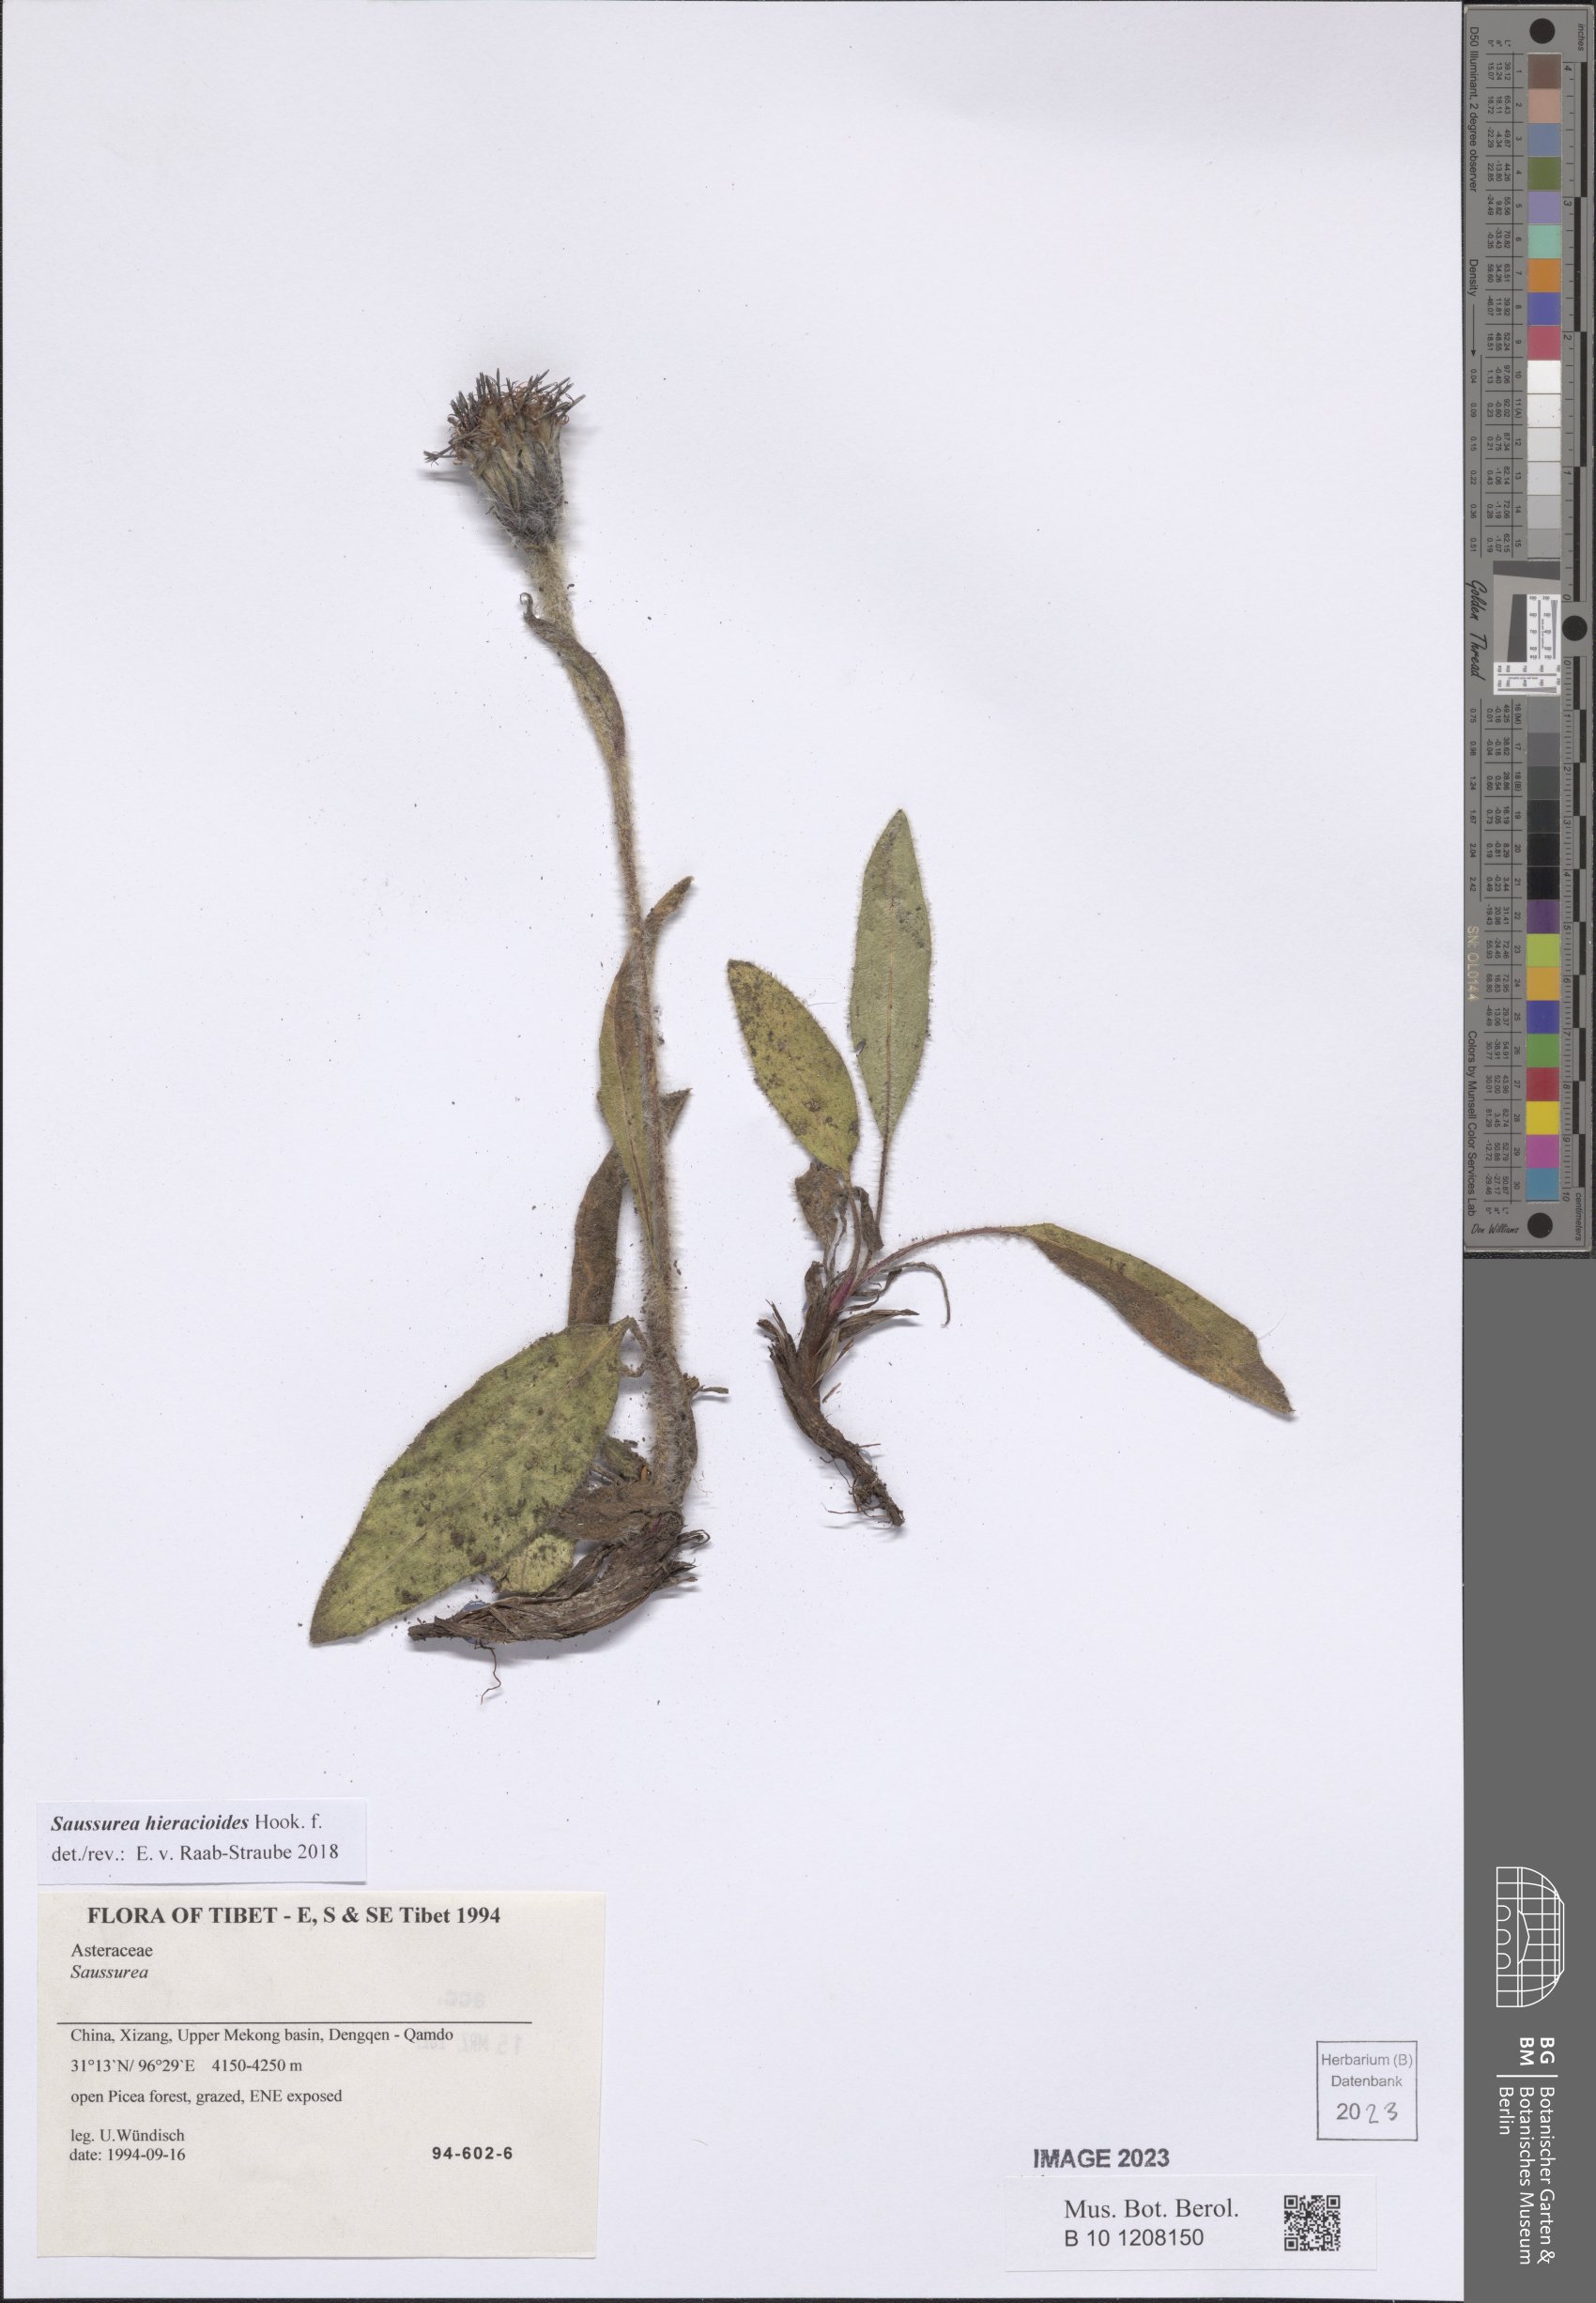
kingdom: Plantae
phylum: Tracheophyta
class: Magnoliopsida
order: Asterales
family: Asteraceae
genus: Saussurea
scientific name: Saussurea hieracioides
